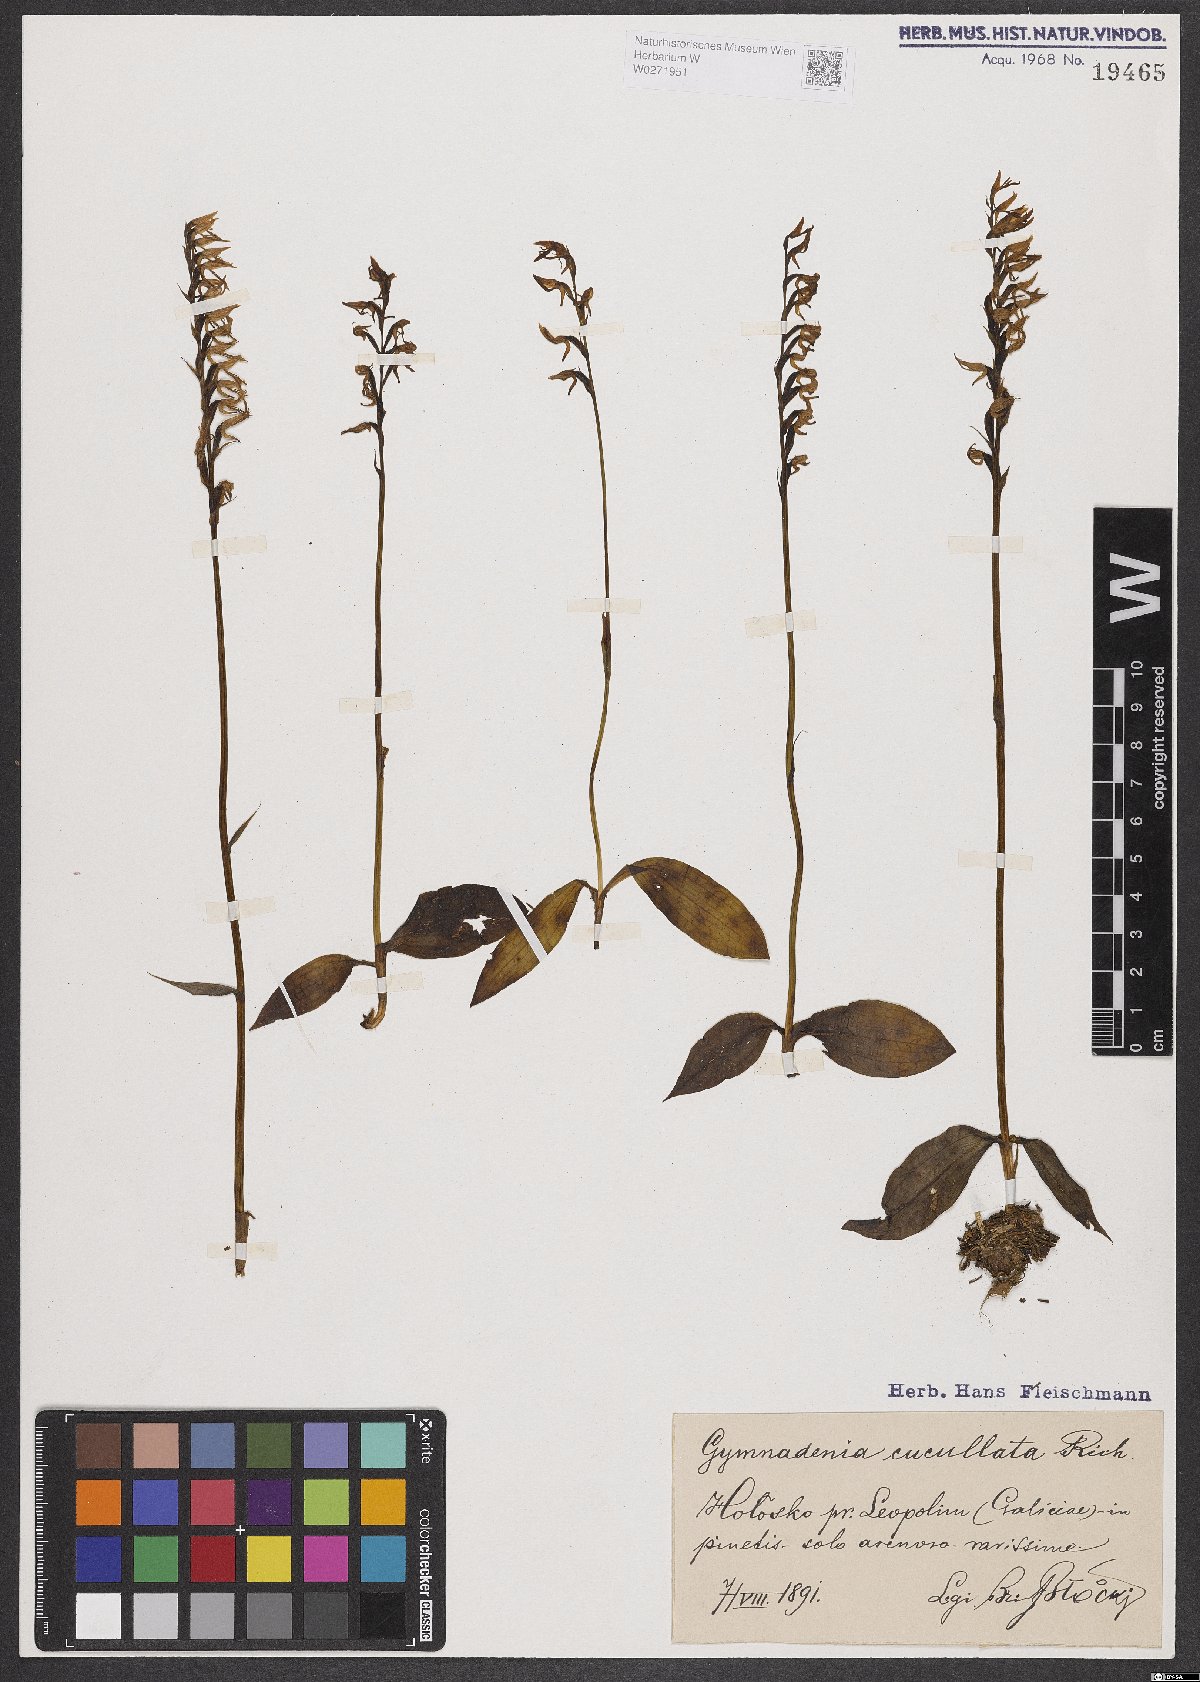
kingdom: Plantae
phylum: Tracheophyta
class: Liliopsida
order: Asparagales
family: Orchidaceae
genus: Hemipilia
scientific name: Hemipilia cucullata
